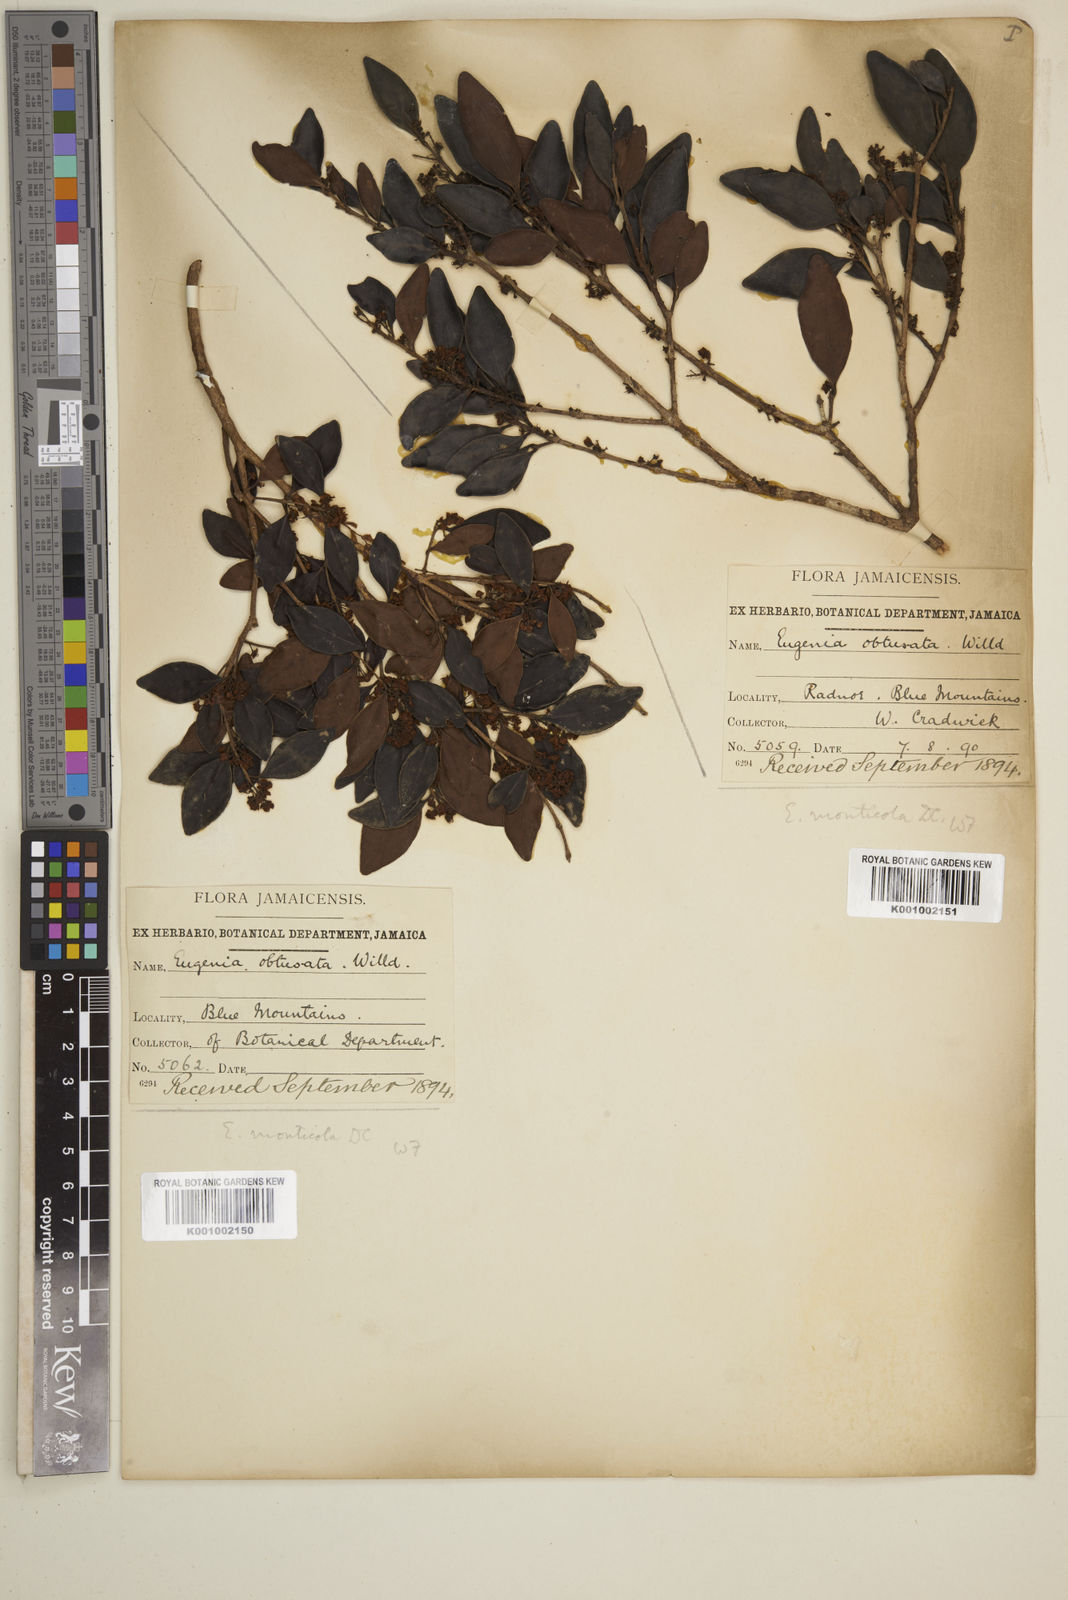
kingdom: Plantae
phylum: Tracheophyta
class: Magnoliopsida
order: Myrtales
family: Myrtaceae
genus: Eugenia
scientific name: Eugenia monticola
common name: Birds berry
